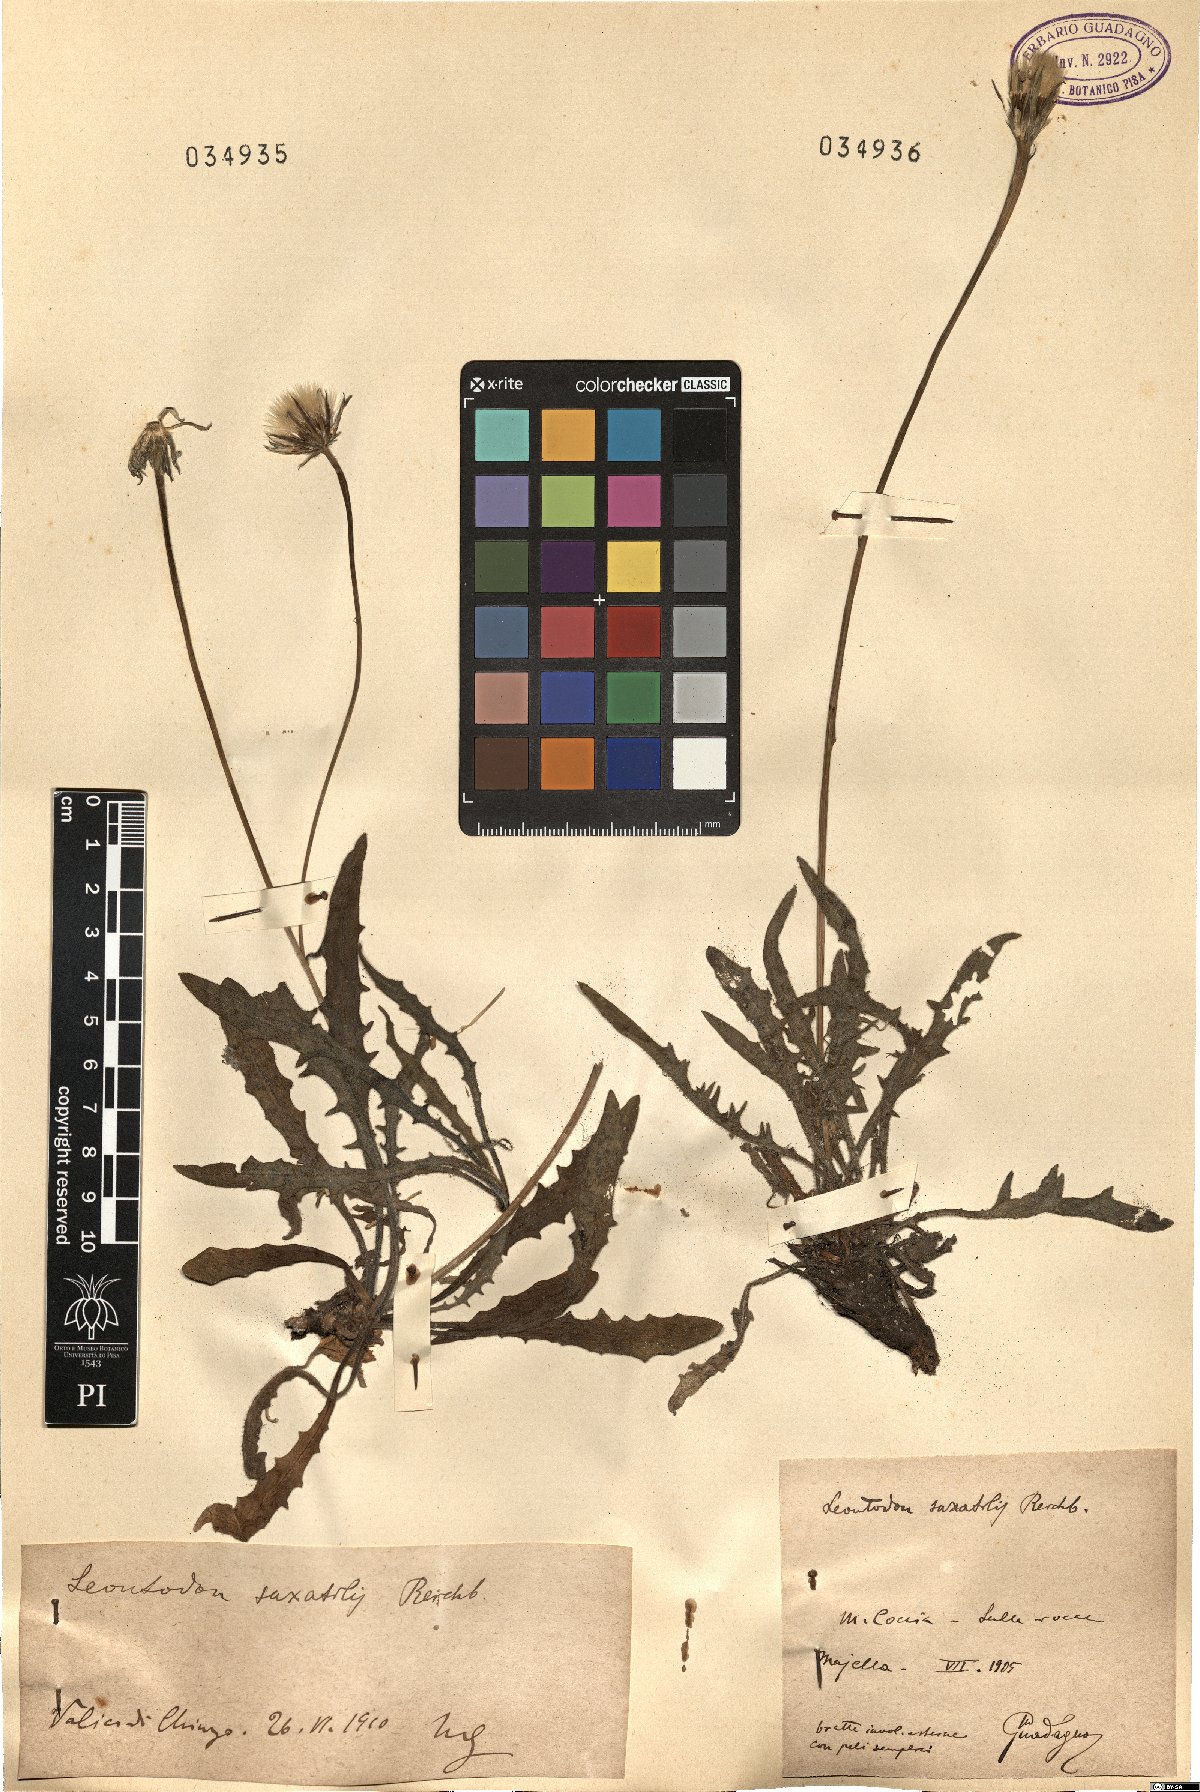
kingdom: Plantae
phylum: Tracheophyta
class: Magnoliopsida
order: Asterales
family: Asteraceae
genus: Thrincia
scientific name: Thrincia saxatilis
